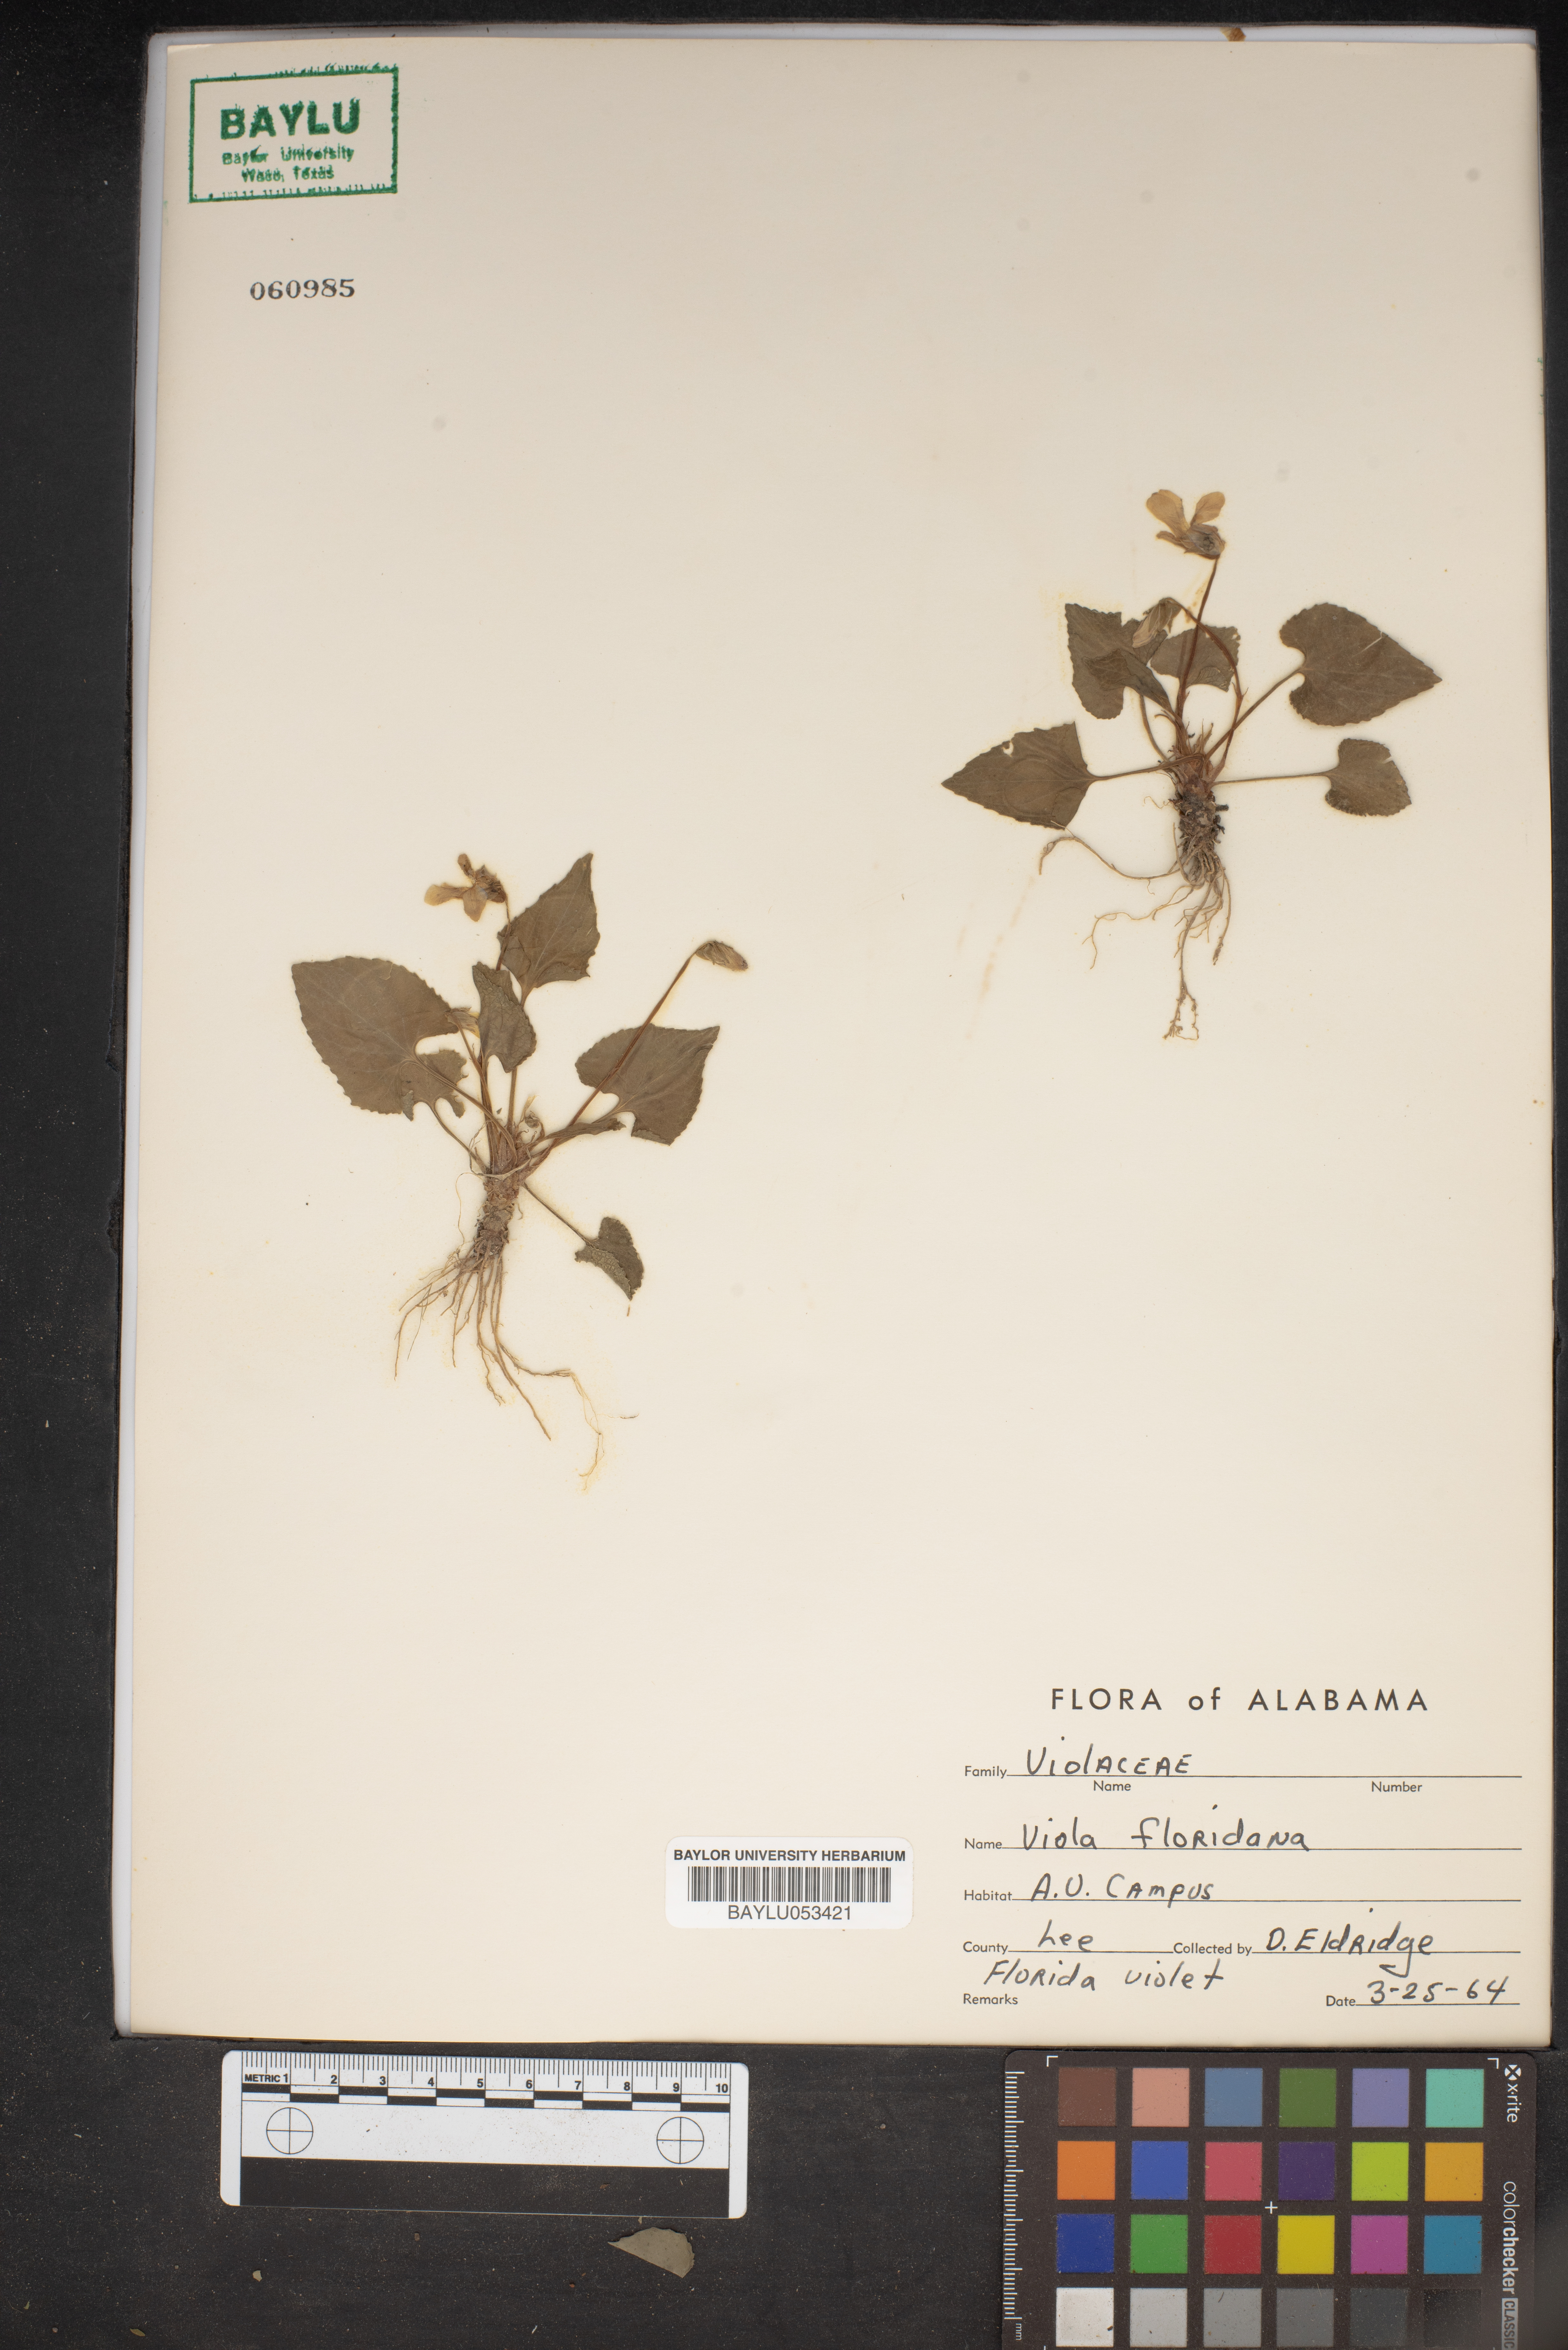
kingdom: Plantae
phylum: Tracheophyta
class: Magnoliopsida
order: Malpighiales
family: Violaceae
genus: Viola
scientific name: Viola floridana
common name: Florida violet
